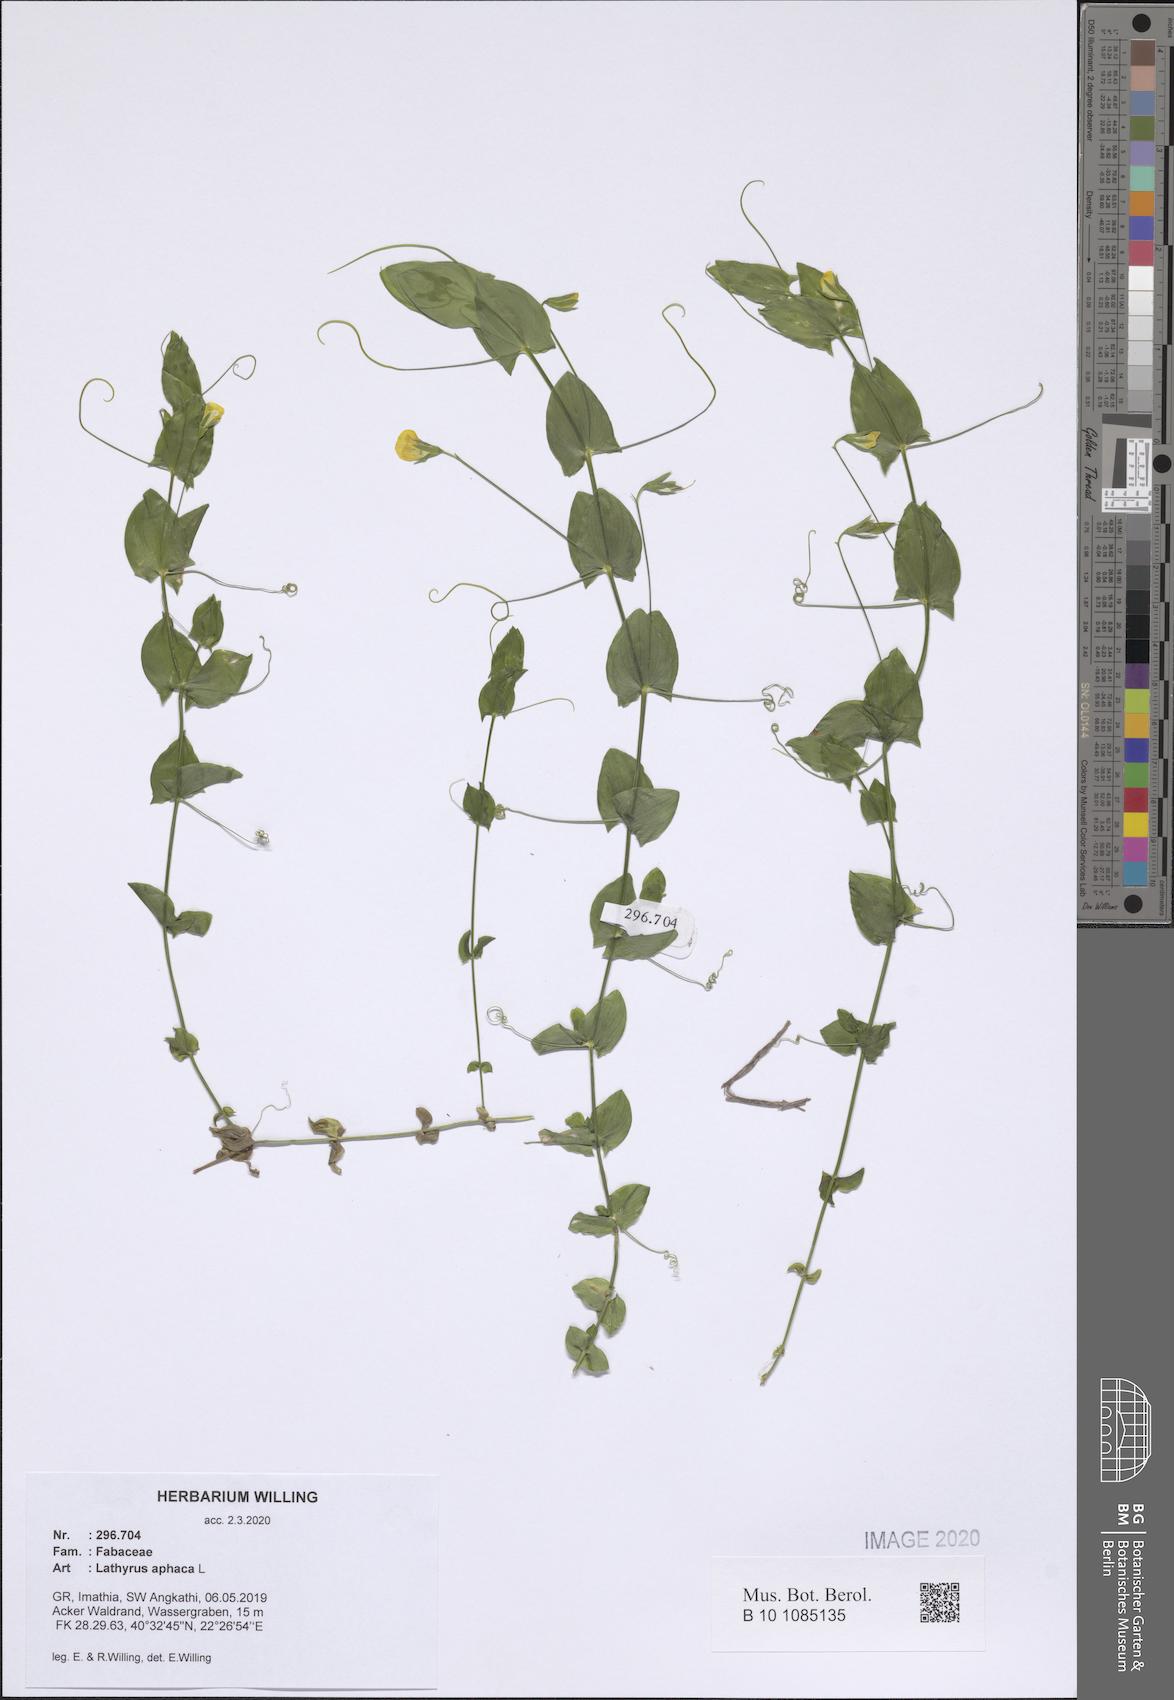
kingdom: Plantae
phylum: Tracheophyta
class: Magnoliopsida
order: Fabales
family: Fabaceae
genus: Lathyrus
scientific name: Lathyrus aphaca
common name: Yellow vetchling
